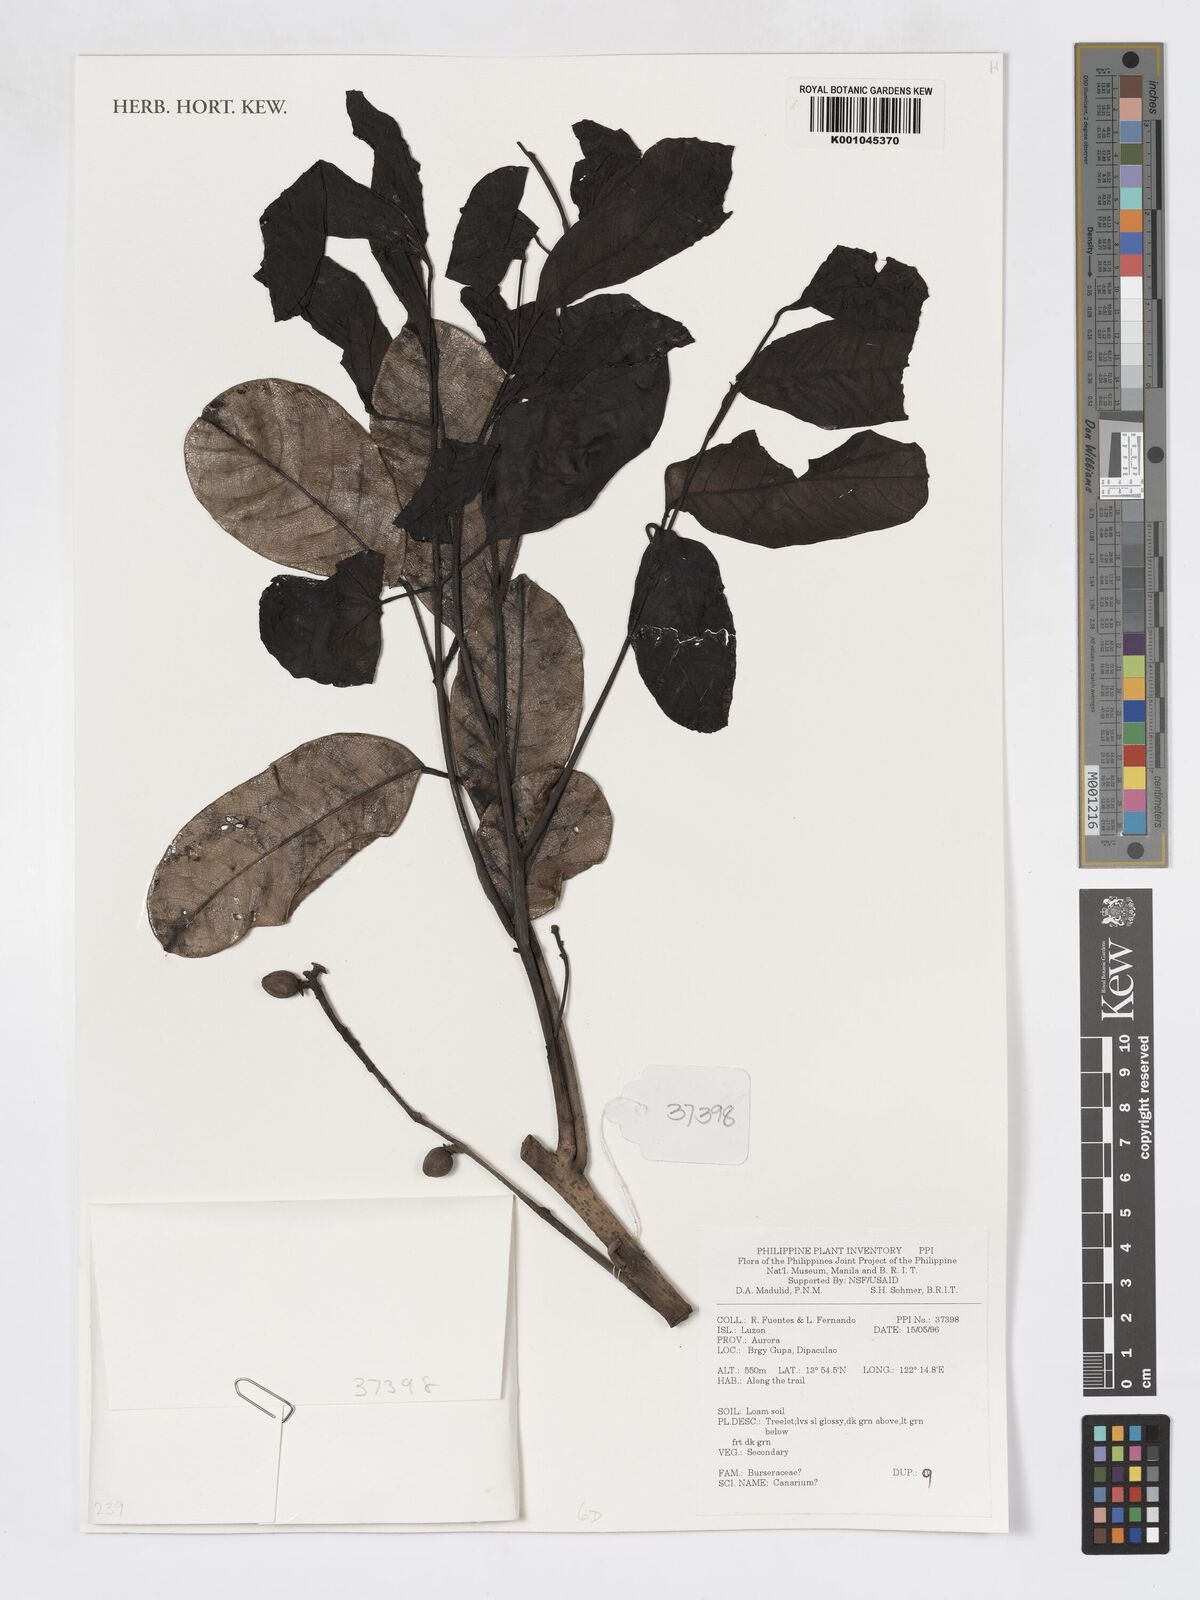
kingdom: Plantae
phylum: Tracheophyta
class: Magnoliopsida
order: Sapindales
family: Burseraceae
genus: Canarium
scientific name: Canarium
